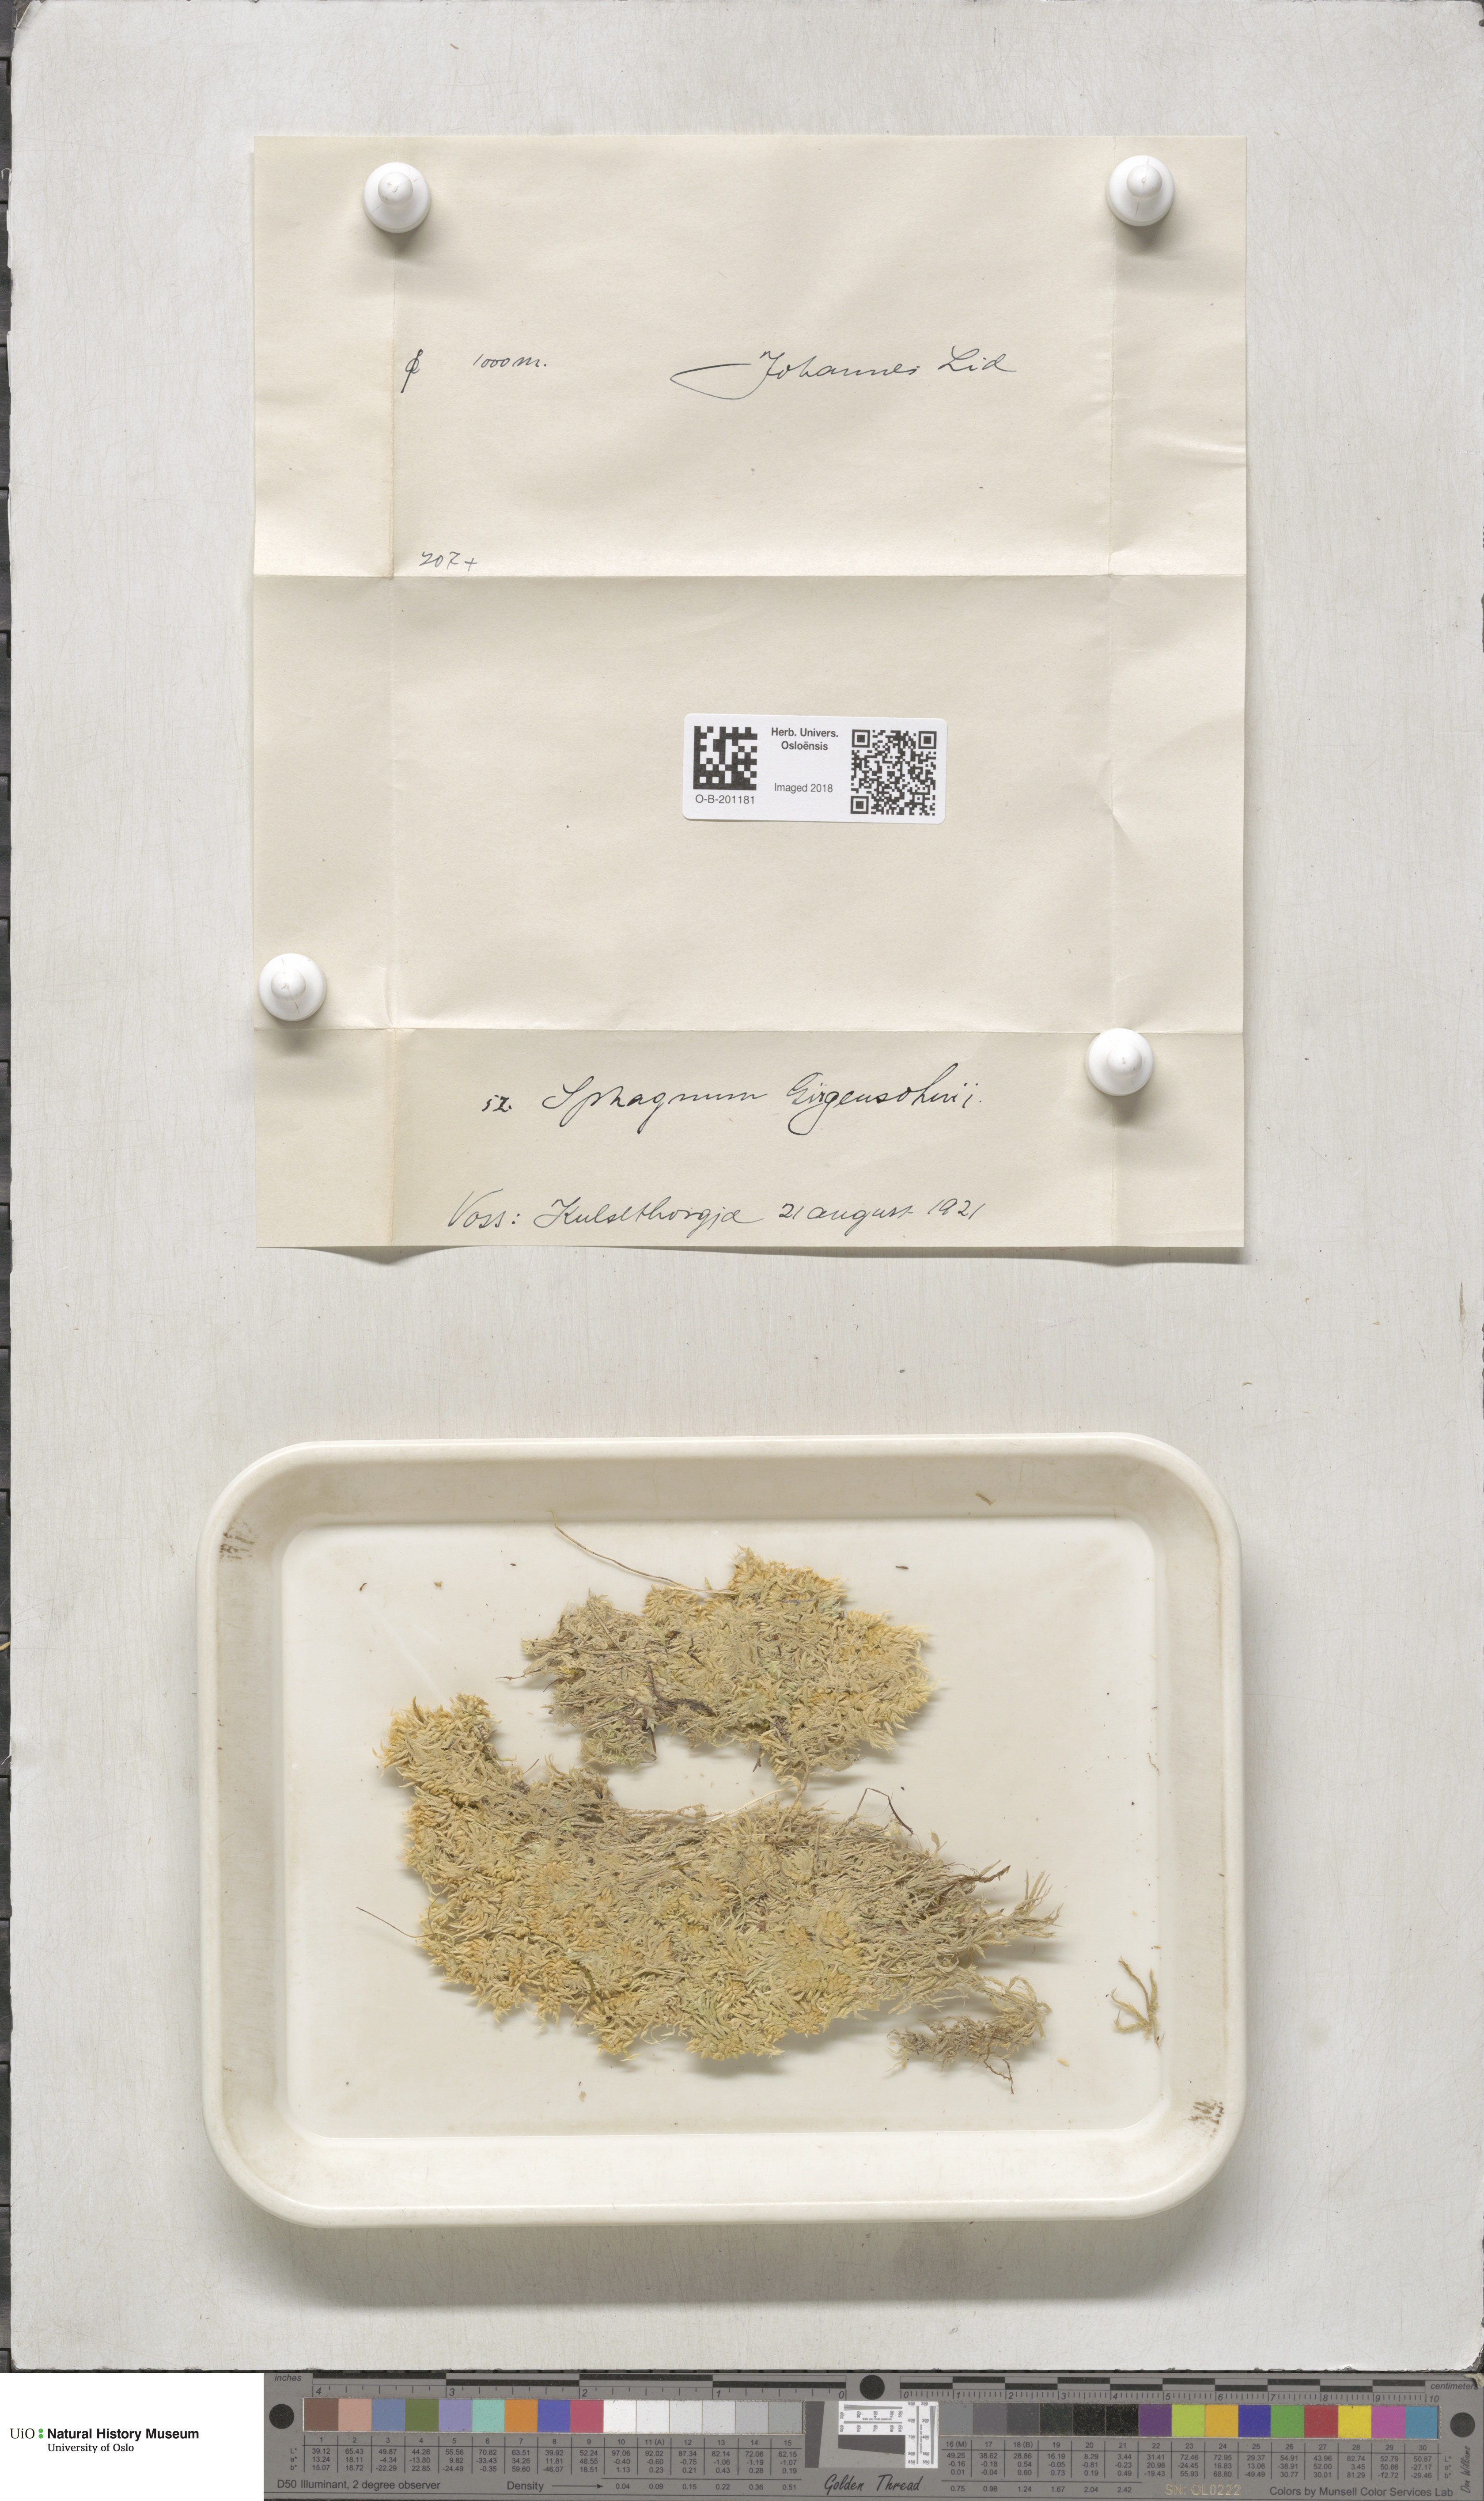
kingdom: Plantae
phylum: Bryophyta
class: Sphagnopsida
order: Sphagnales
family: Sphagnaceae
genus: Sphagnum
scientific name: Sphagnum girgensohnii
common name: Girgensohn's peat moss
